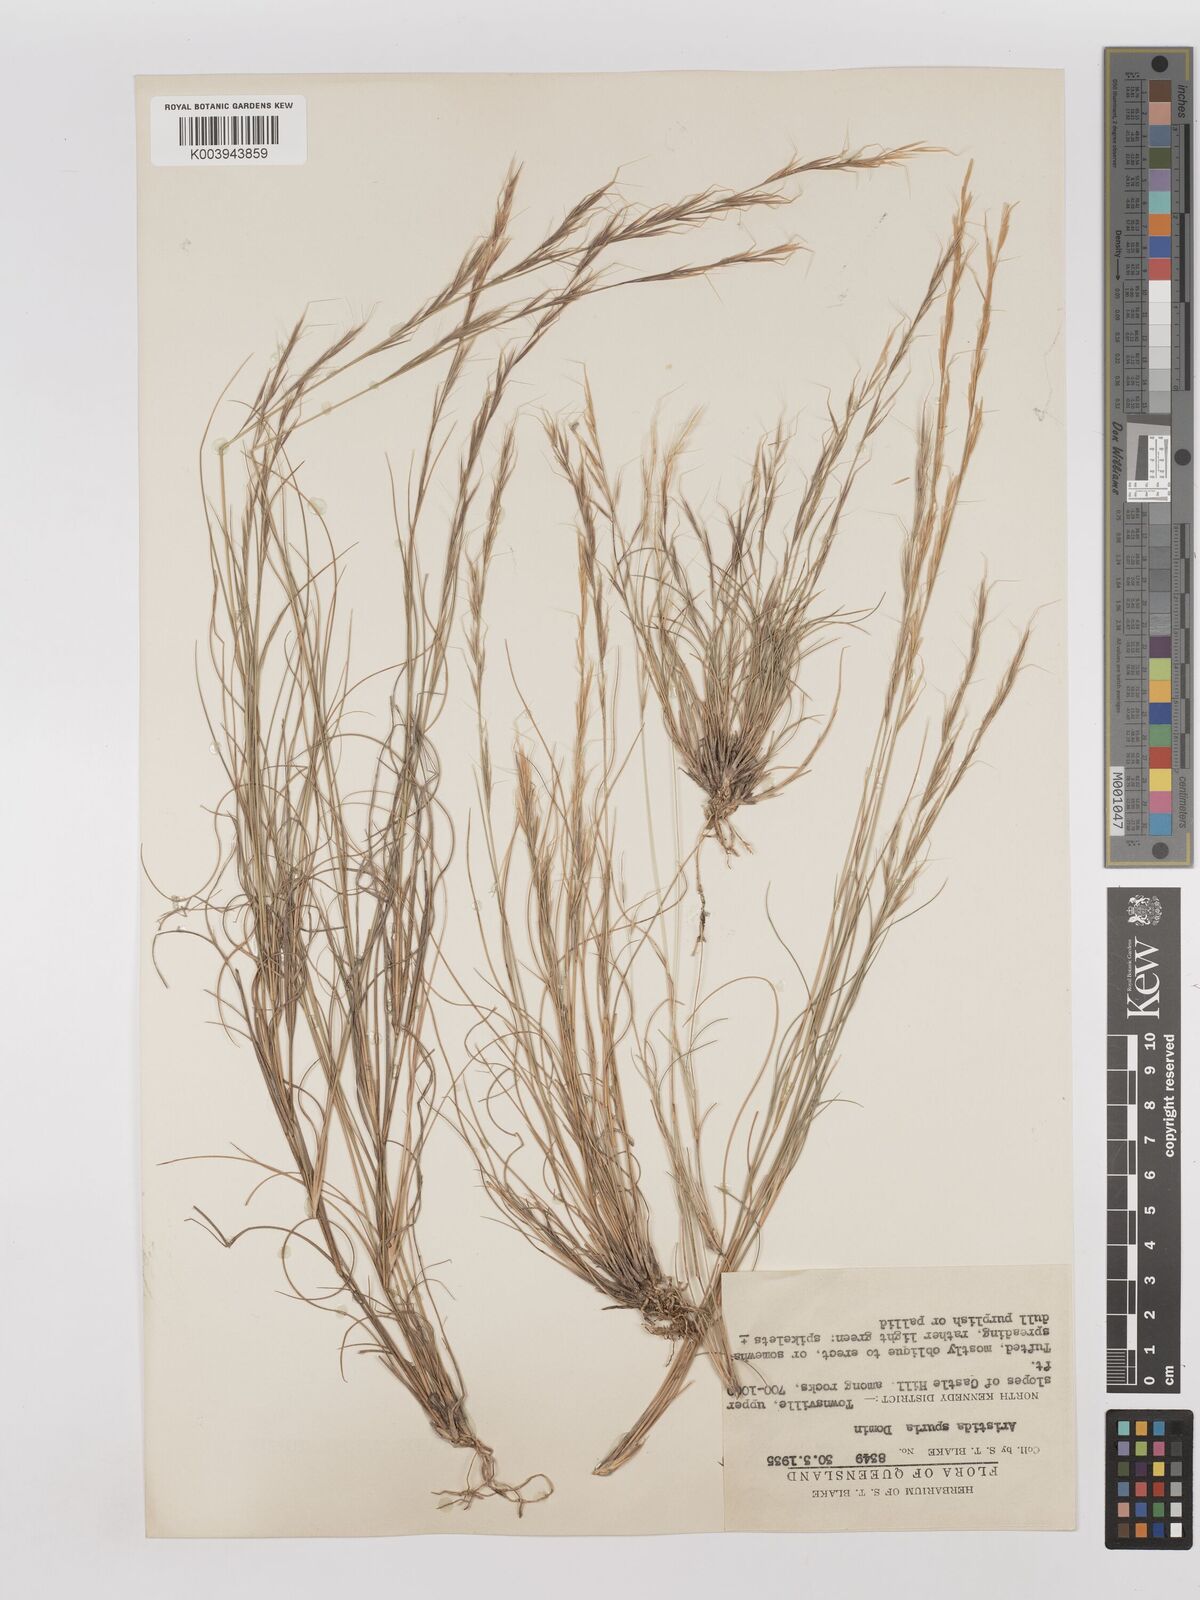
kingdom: Plantae
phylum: Tracheophyta
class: Liliopsida
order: Poales
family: Poaceae
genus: Aristida
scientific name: Aristida spuria
